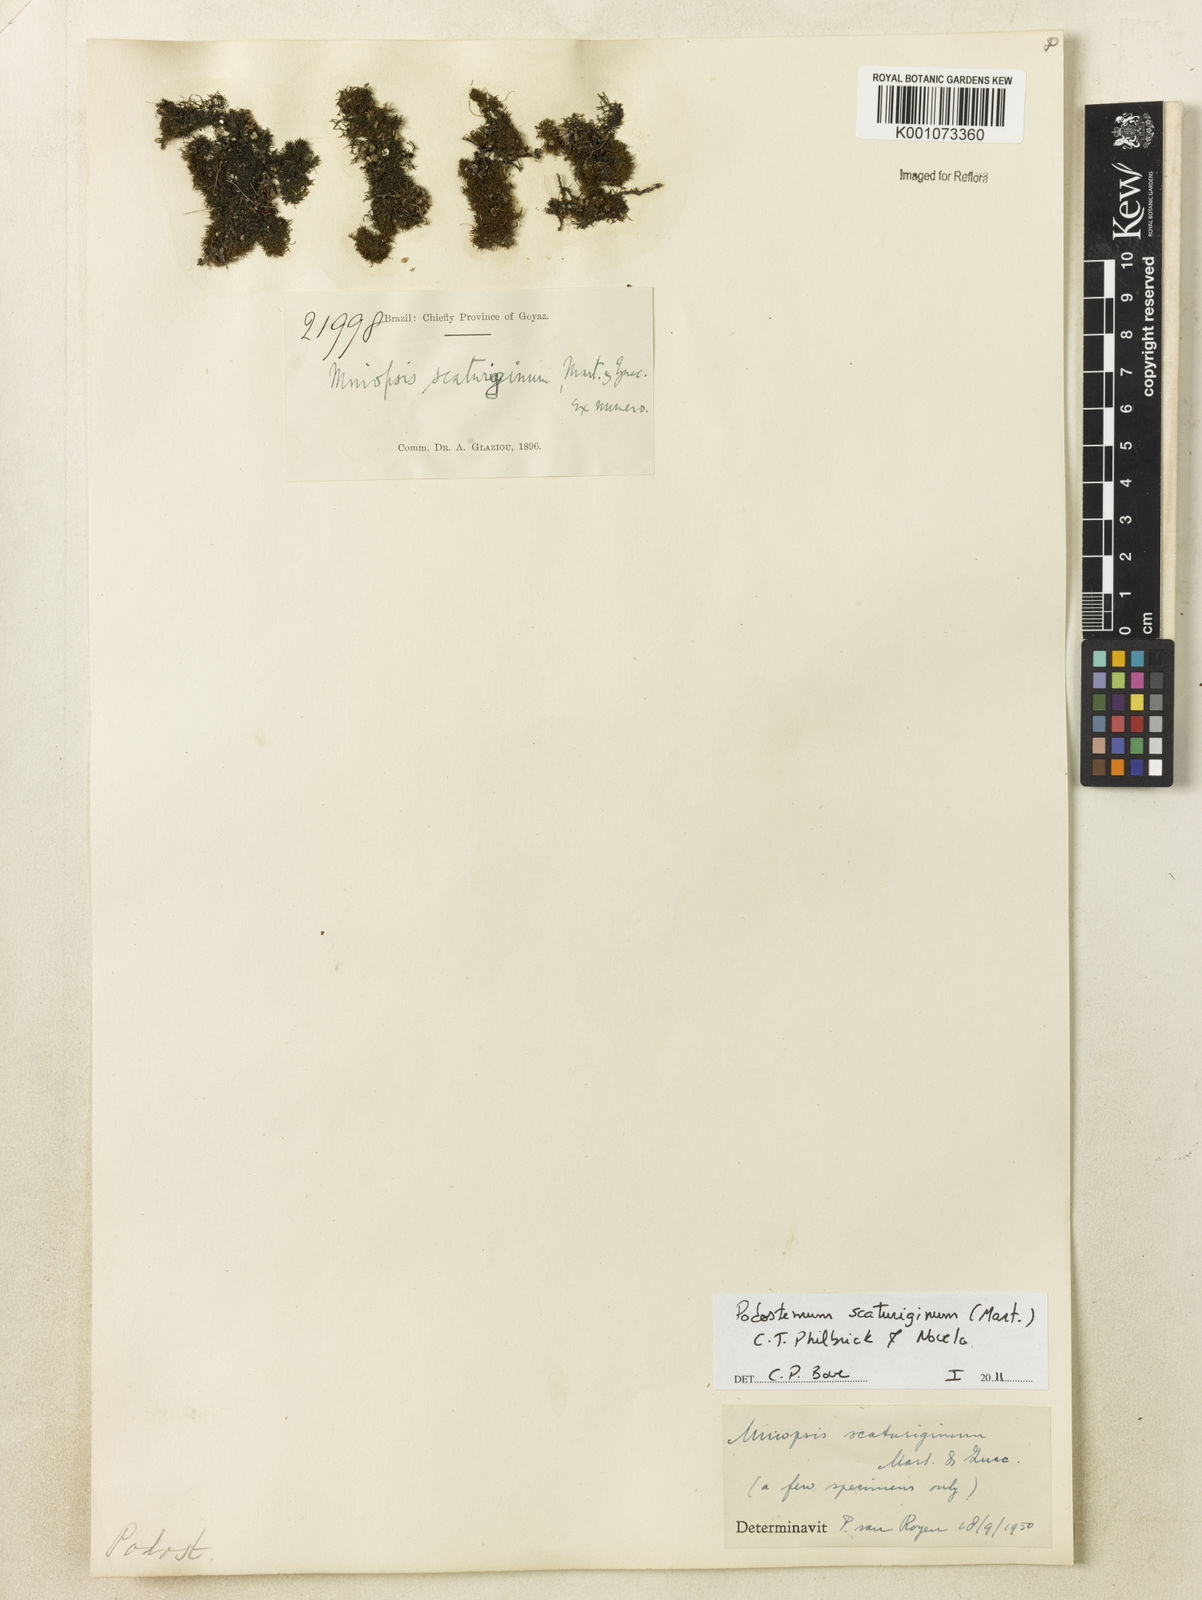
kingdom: Plantae
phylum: Tracheophyta
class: Magnoliopsida
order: Malpighiales
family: Podostemaceae
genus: Podostemum
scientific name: Podostemum scaturiginum
